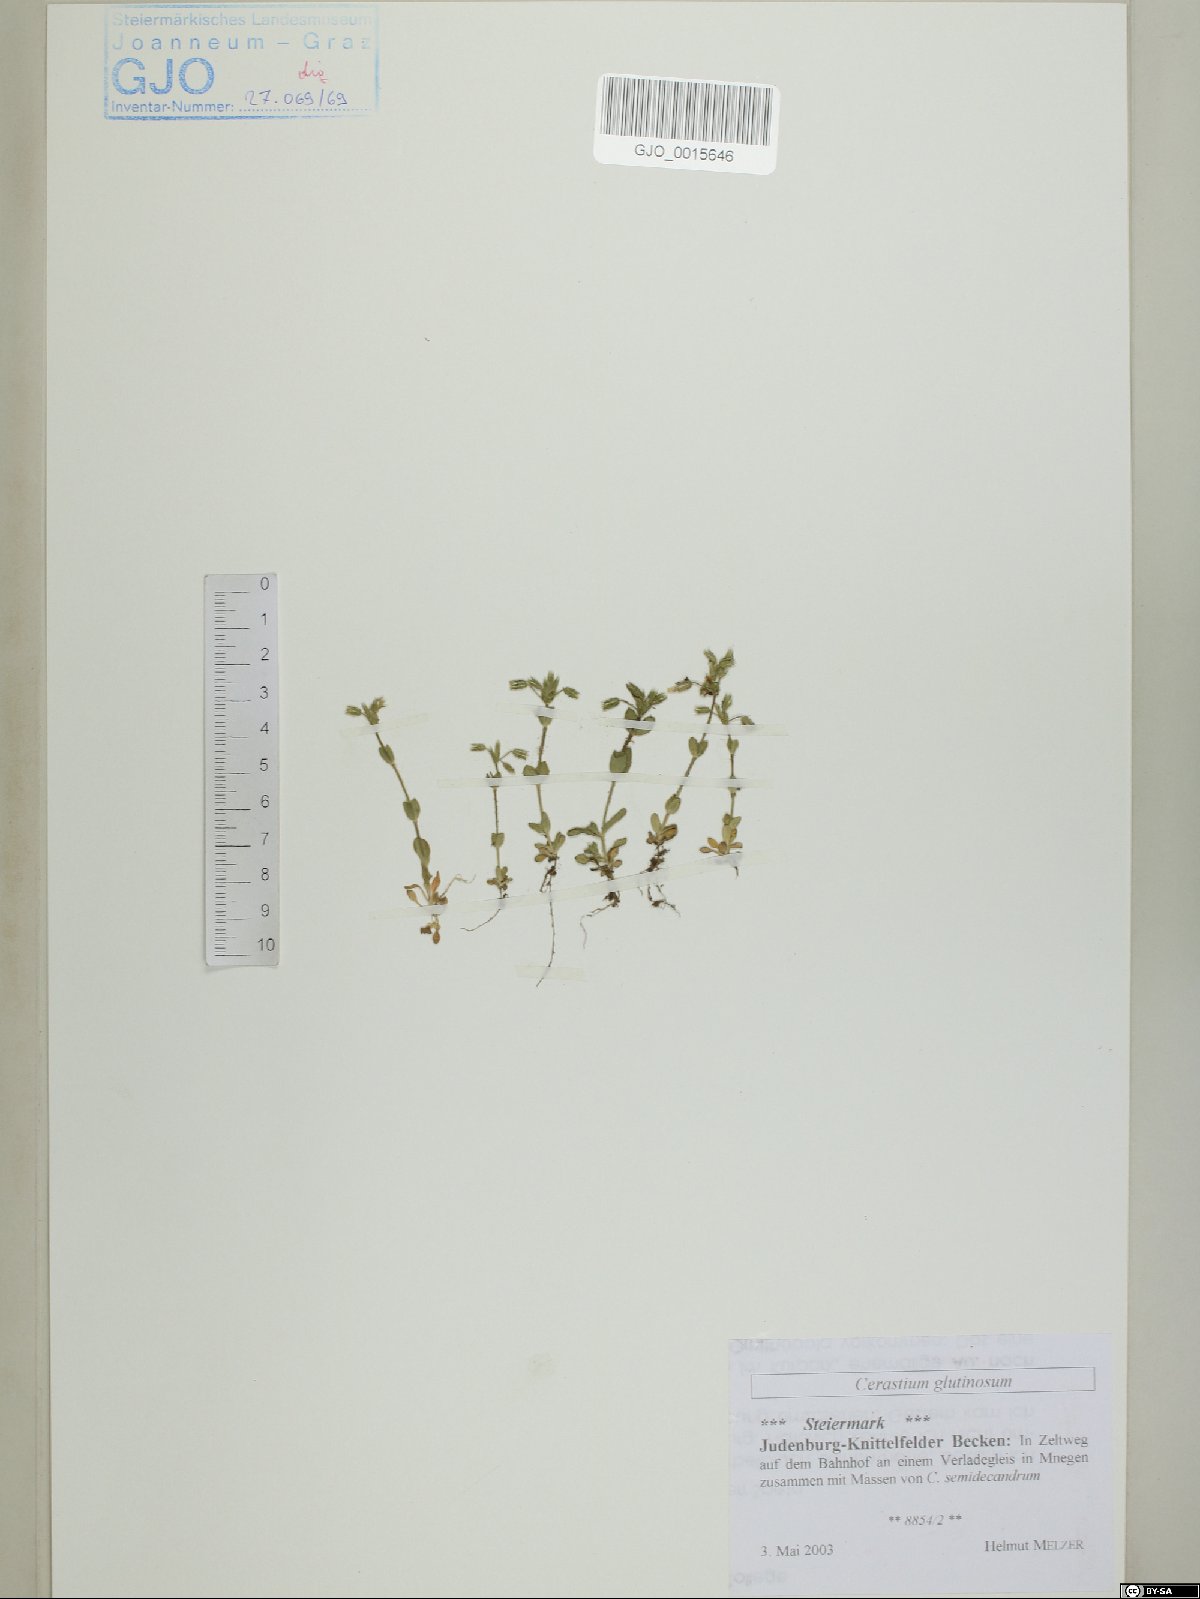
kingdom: Plantae
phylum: Tracheophyta
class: Magnoliopsida
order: Caryophyllales
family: Caryophyllaceae
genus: Cerastium
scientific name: Cerastium glutinosum
